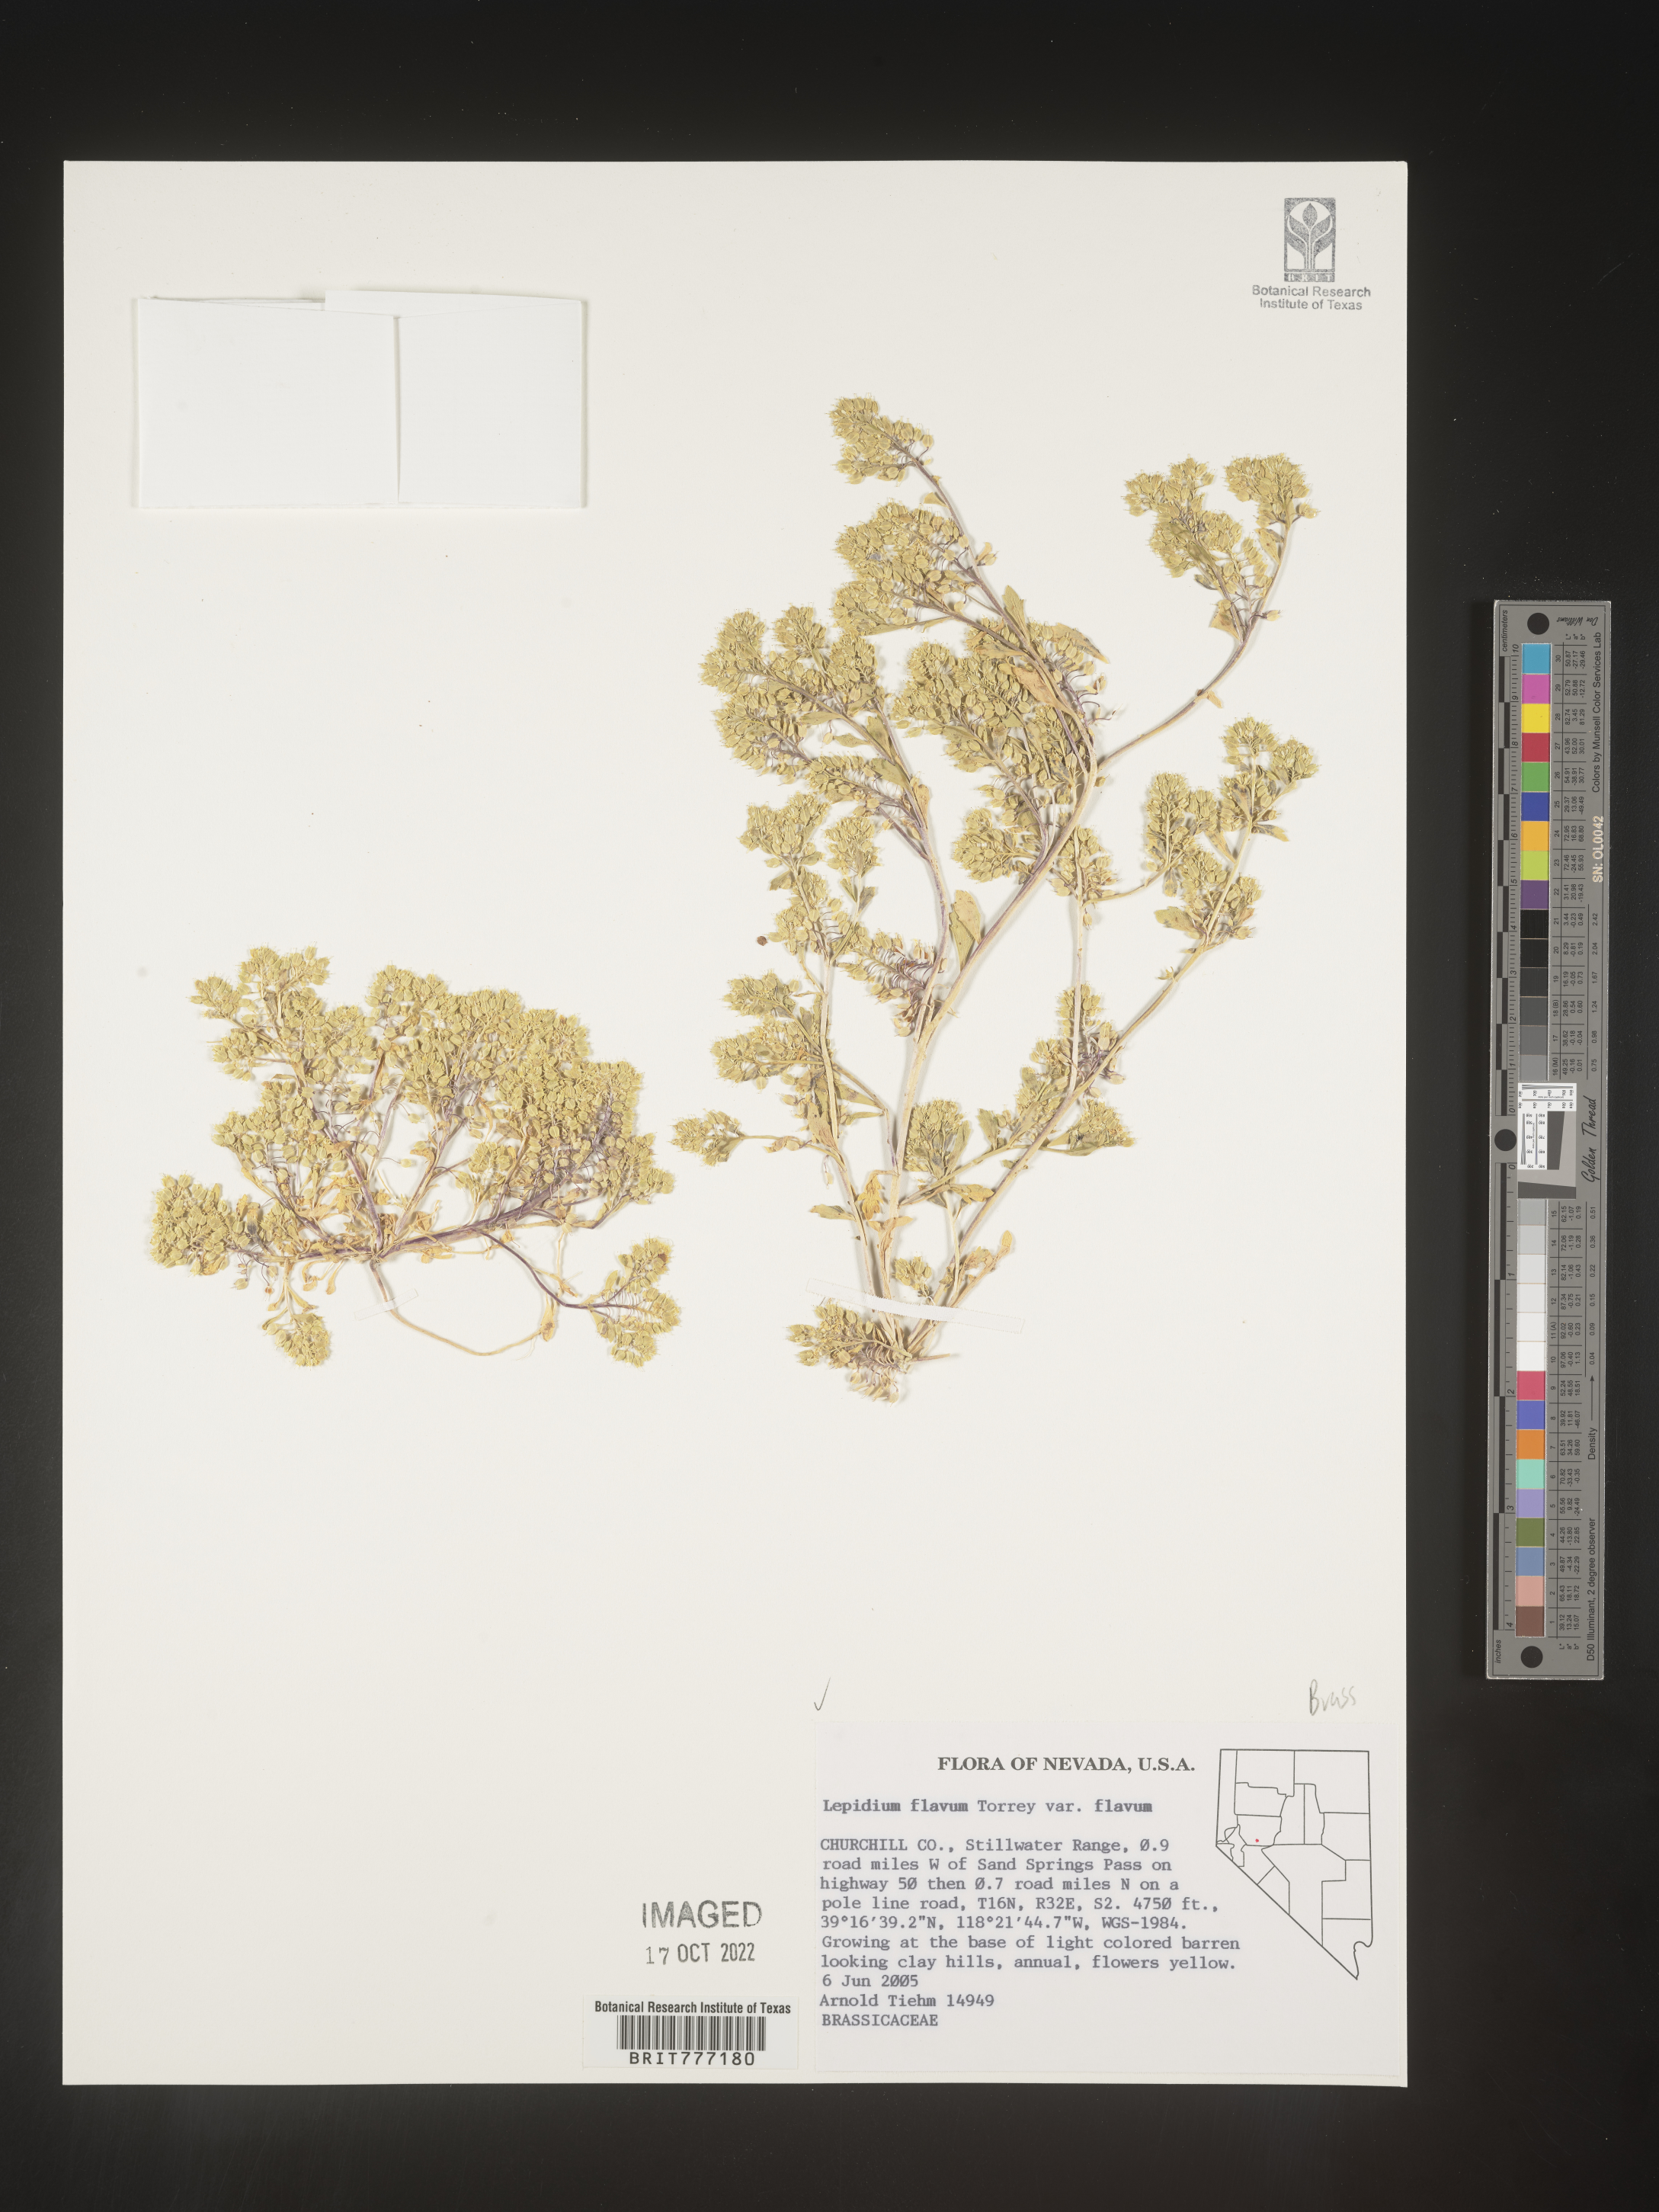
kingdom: Plantae
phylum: Tracheophyta
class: Magnoliopsida
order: Brassicales
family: Brassicaceae
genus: Lepidium
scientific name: Lepidium flavum
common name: Yellow pepperwort
